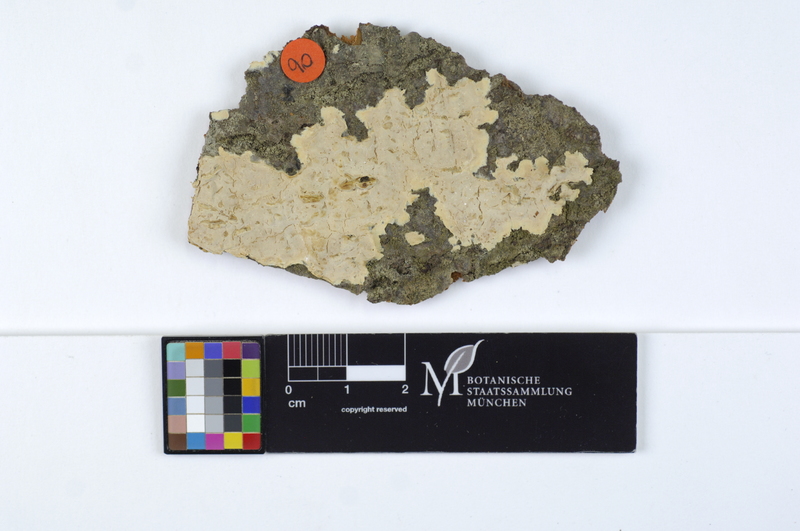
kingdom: Fungi
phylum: Basidiomycota
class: Agaricomycetes
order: Agaricales
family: Physalacriaceae
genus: Cylindrobasidium
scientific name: Cylindrobasidium evolvens
